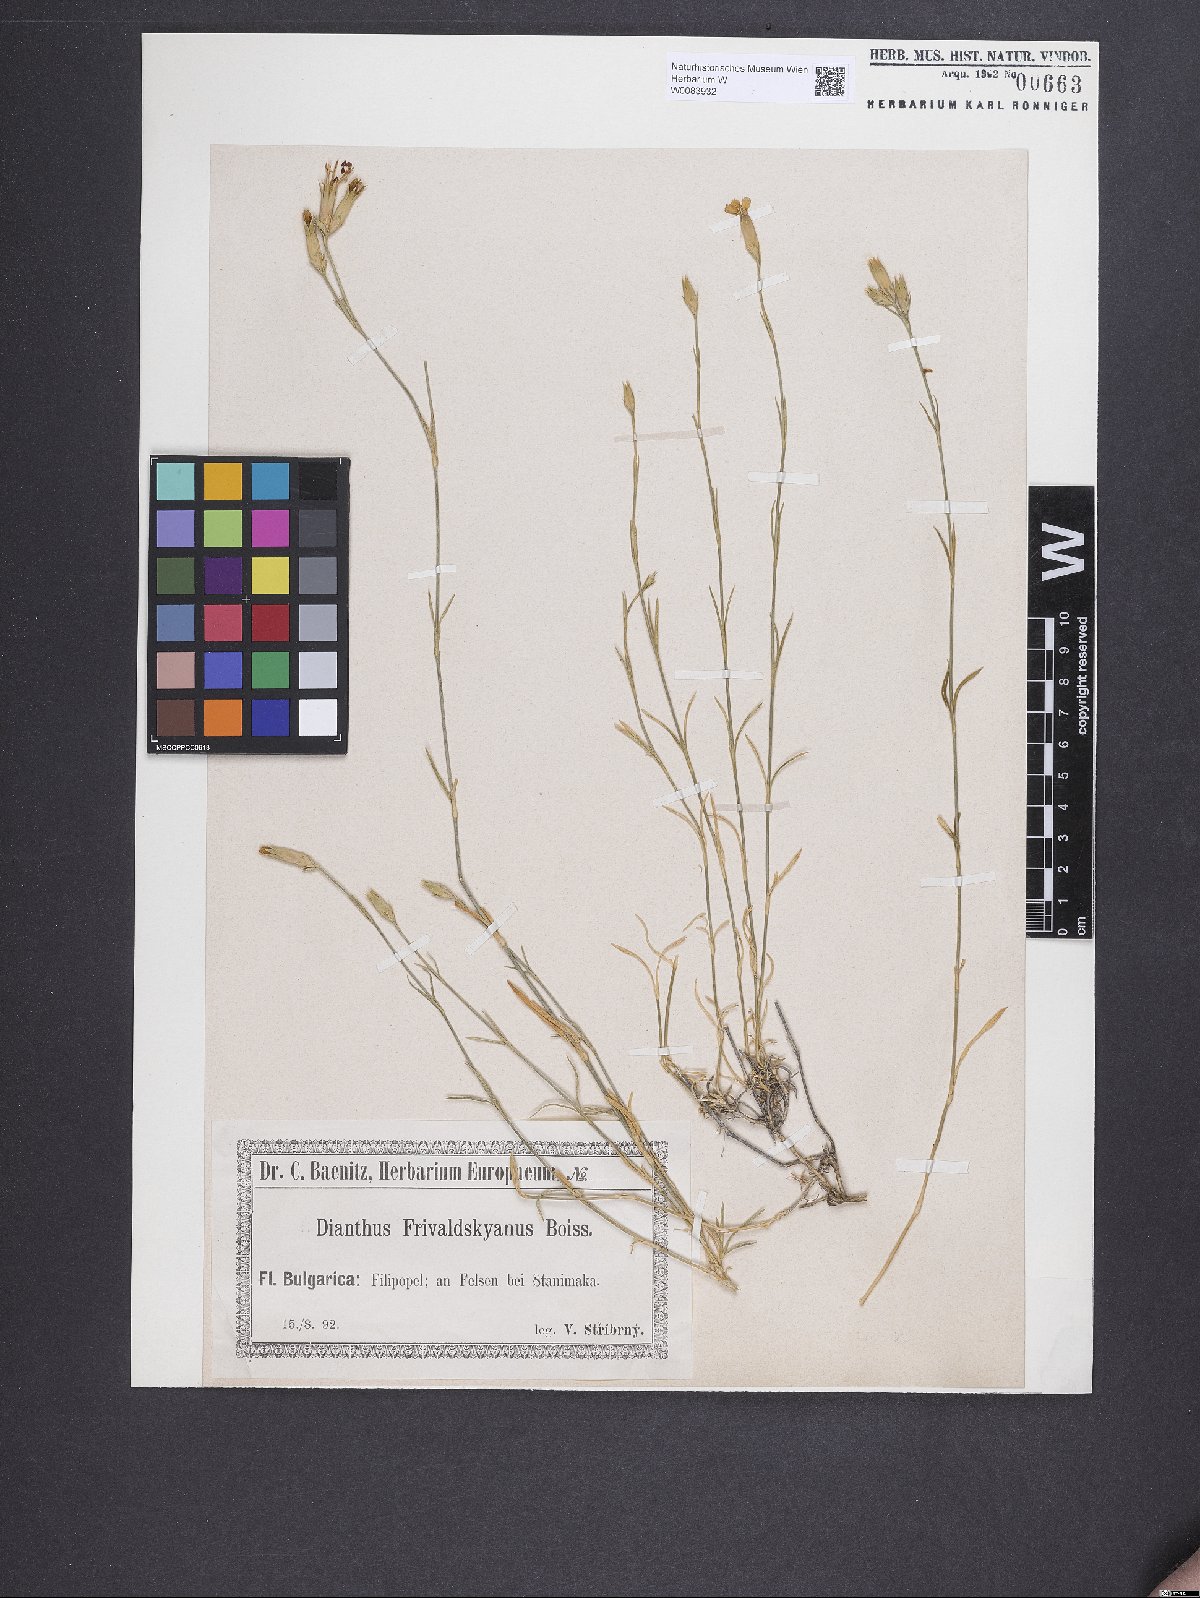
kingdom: Plantae
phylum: Tracheophyta
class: Magnoliopsida
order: Caryophyllales
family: Caryophyllaceae
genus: Dianthus
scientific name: Dianthus gracilis
